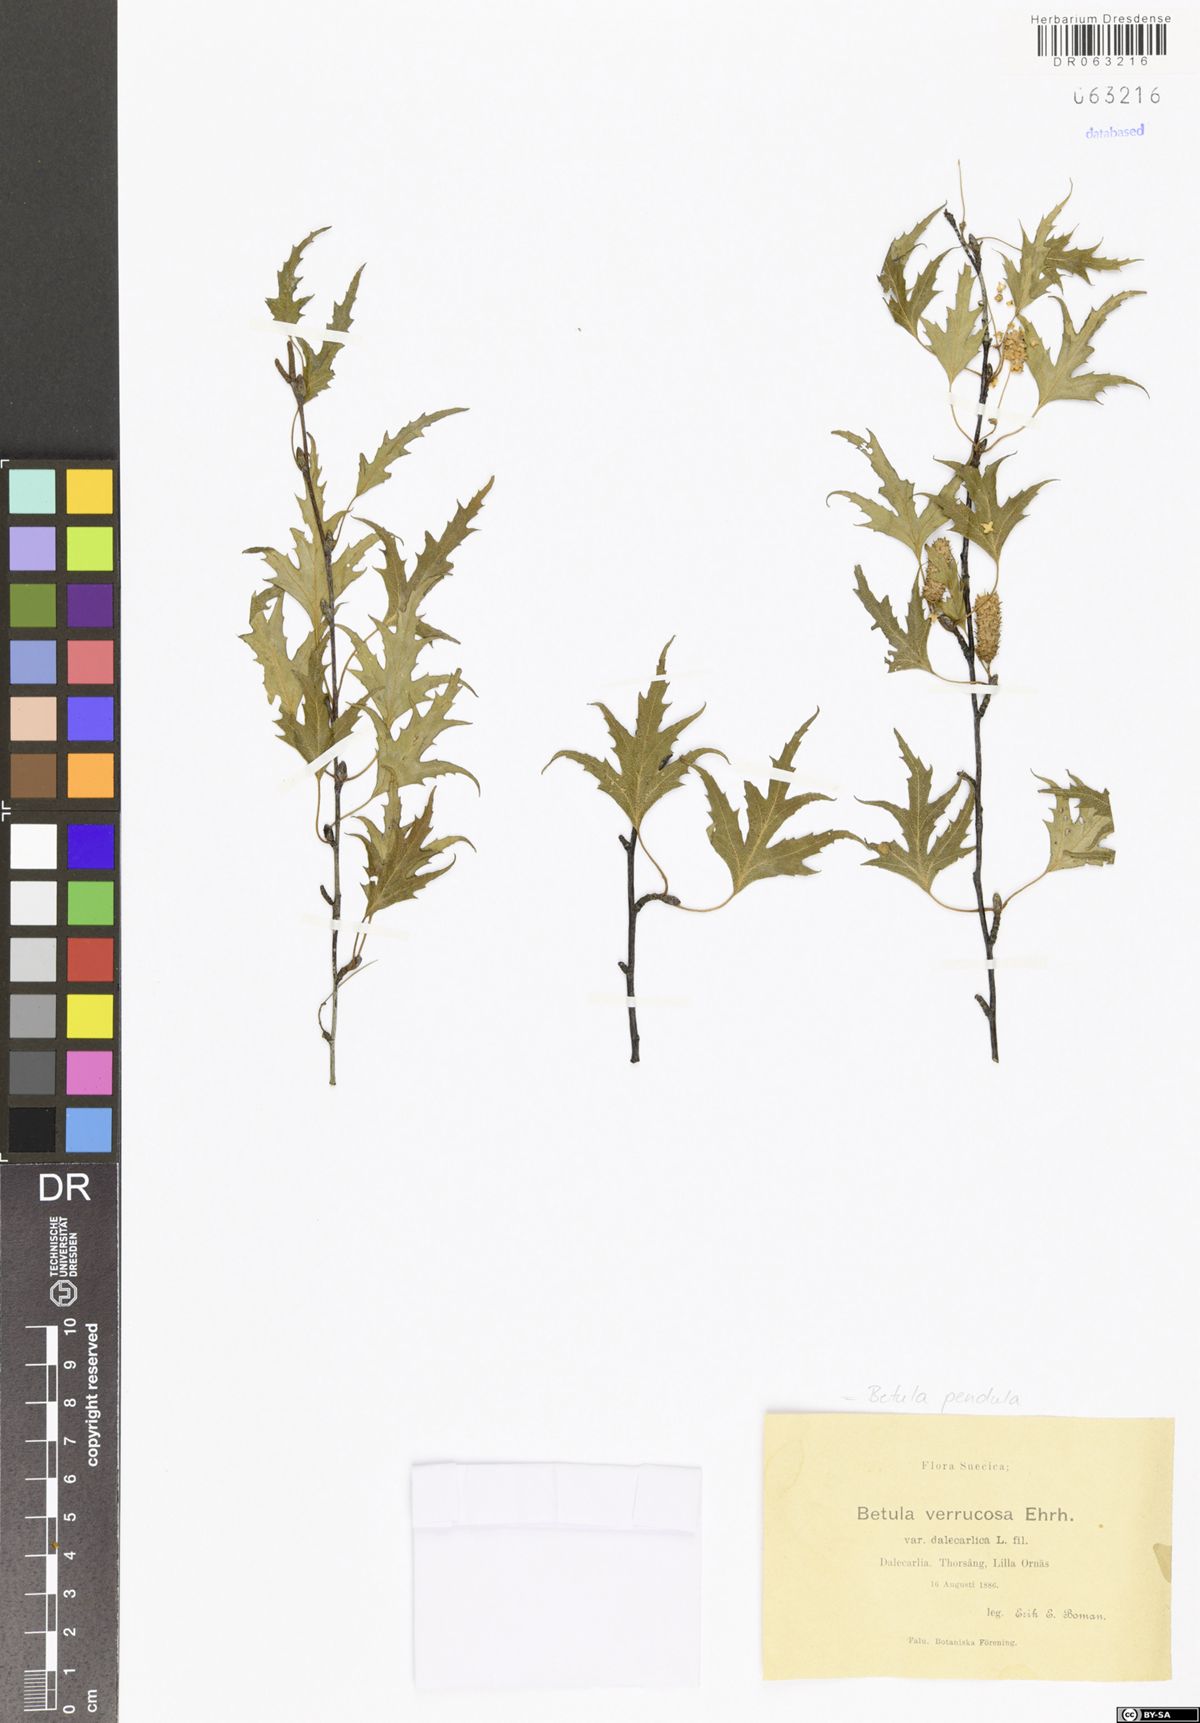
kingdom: Plantae
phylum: Tracheophyta
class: Magnoliopsida
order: Fagales
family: Betulaceae
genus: Betula
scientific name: Betula pendula
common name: Silver birch
